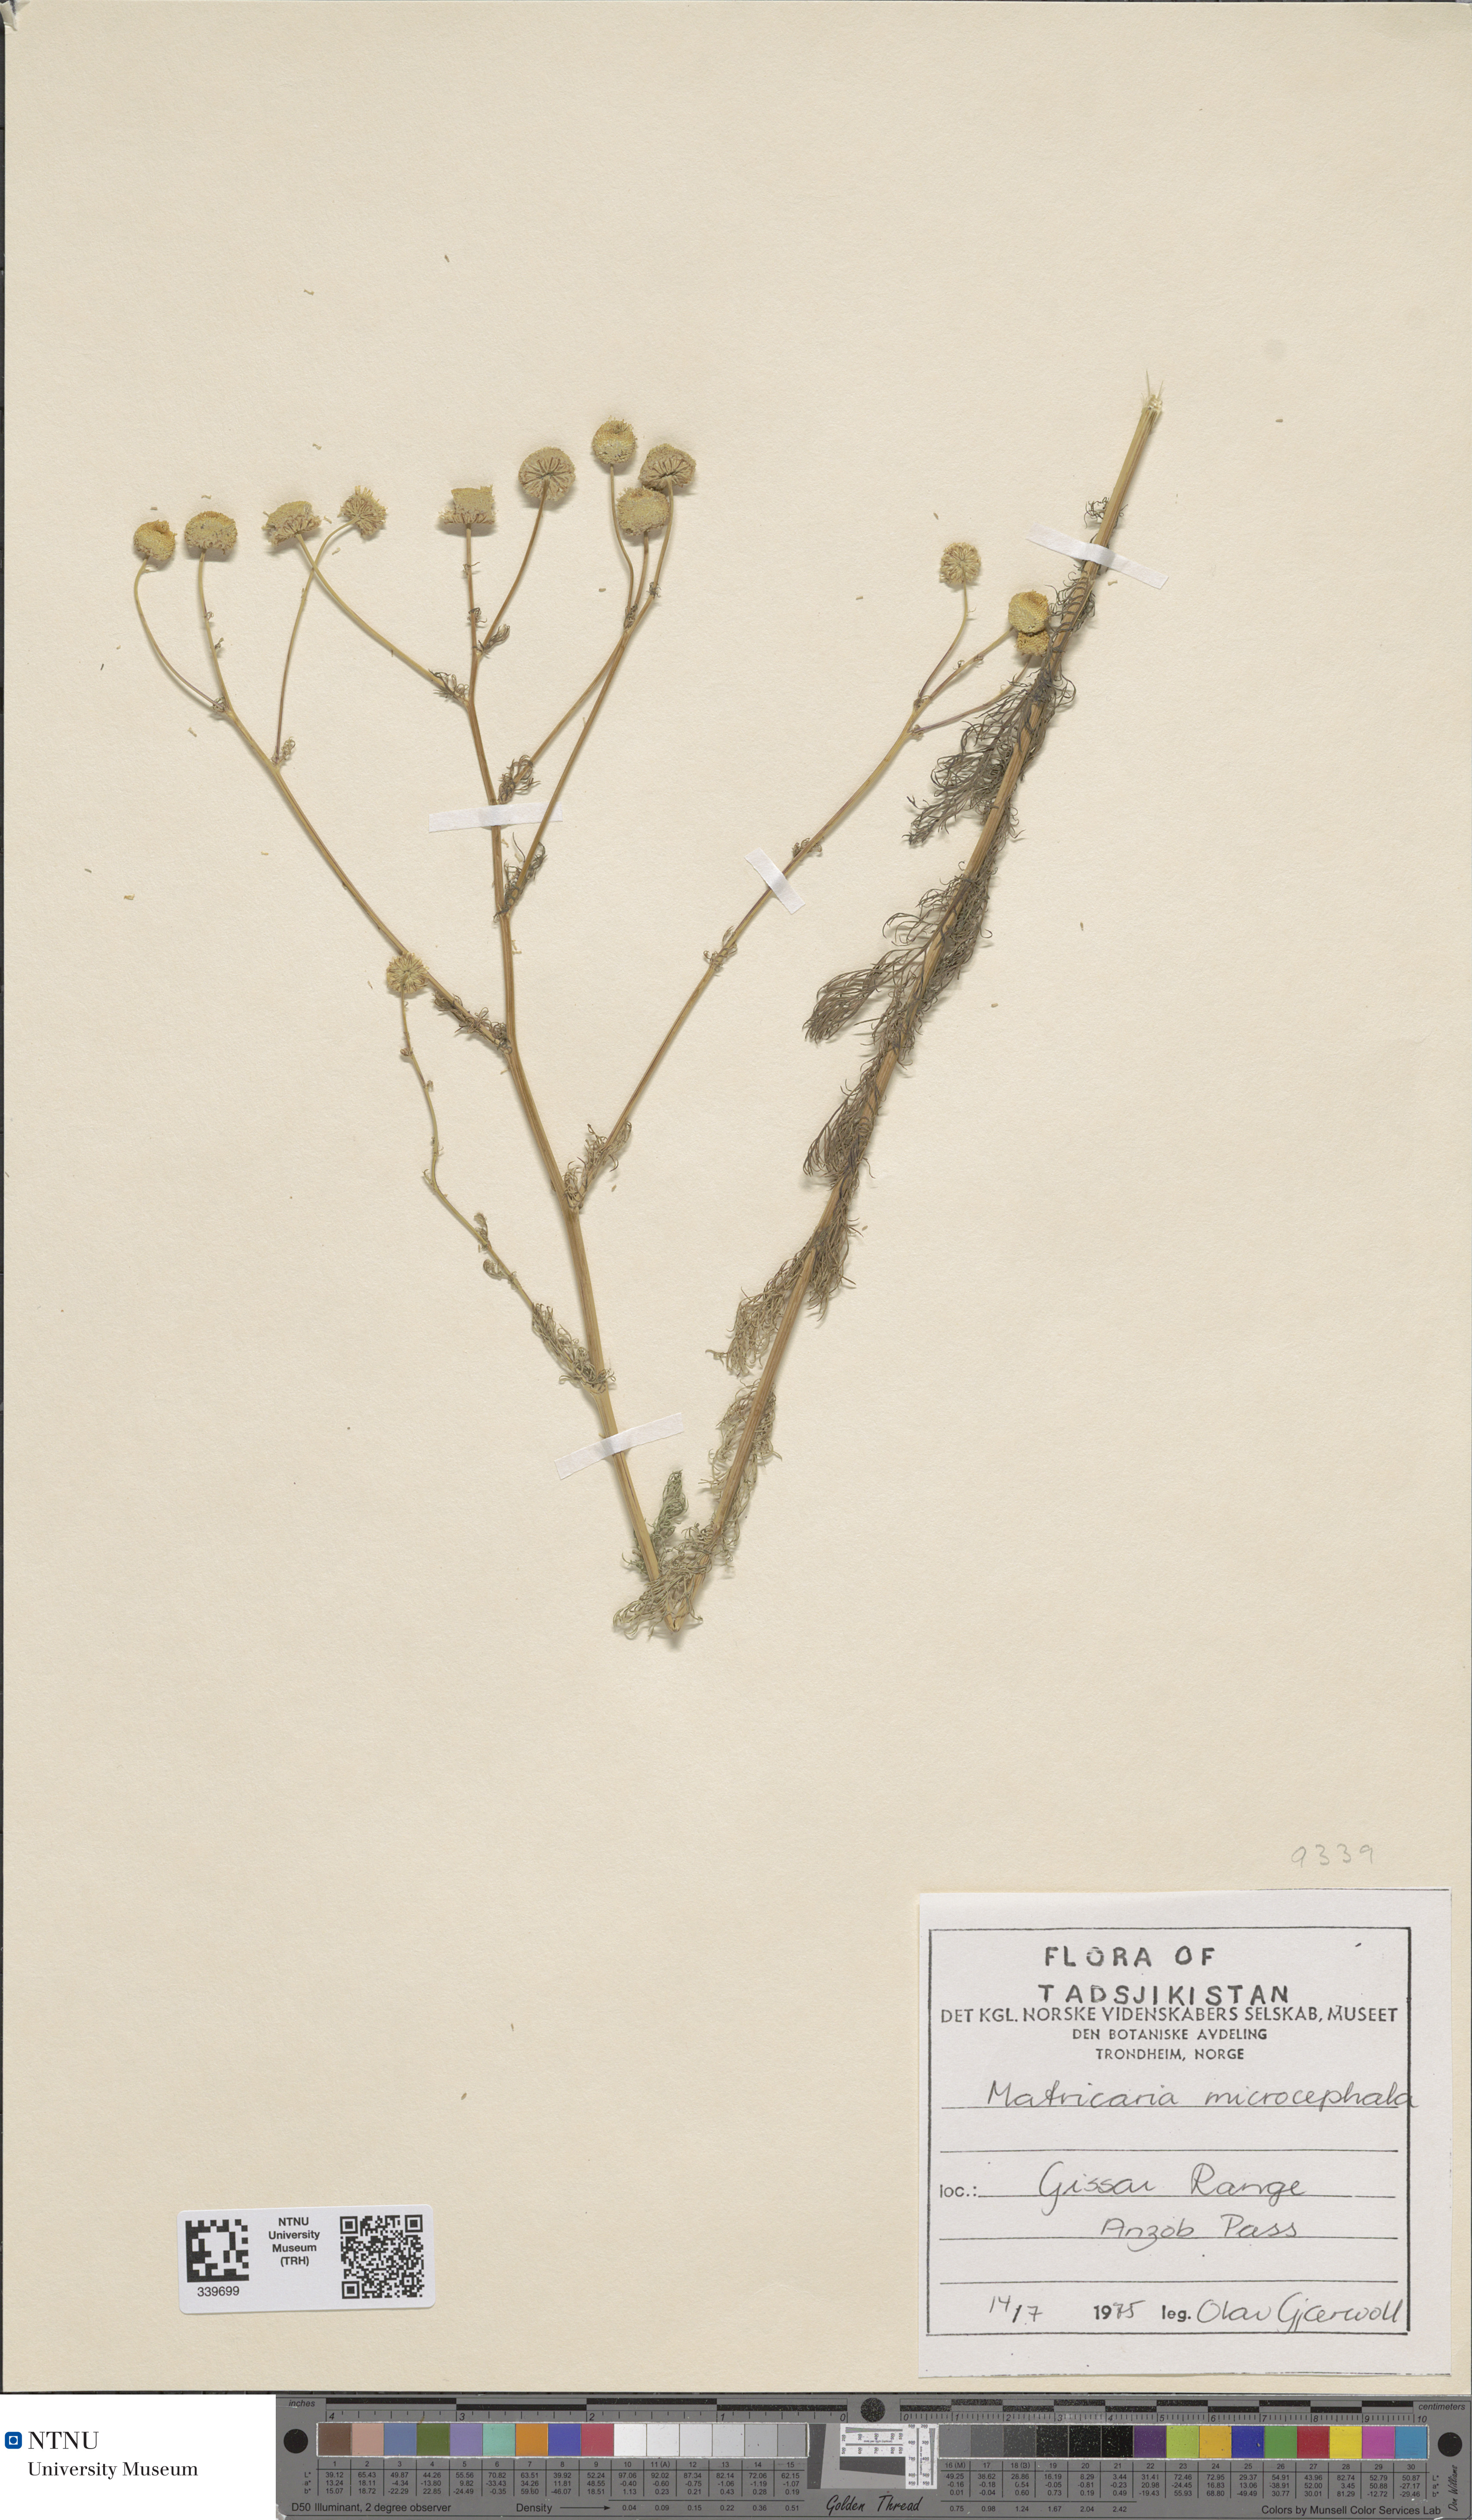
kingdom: Plantae
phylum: Tracheophyta
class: Magnoliopsida
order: Asterales
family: Asteraceae
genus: Tripleurospermum
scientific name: Tripleurospermum microcephalum
